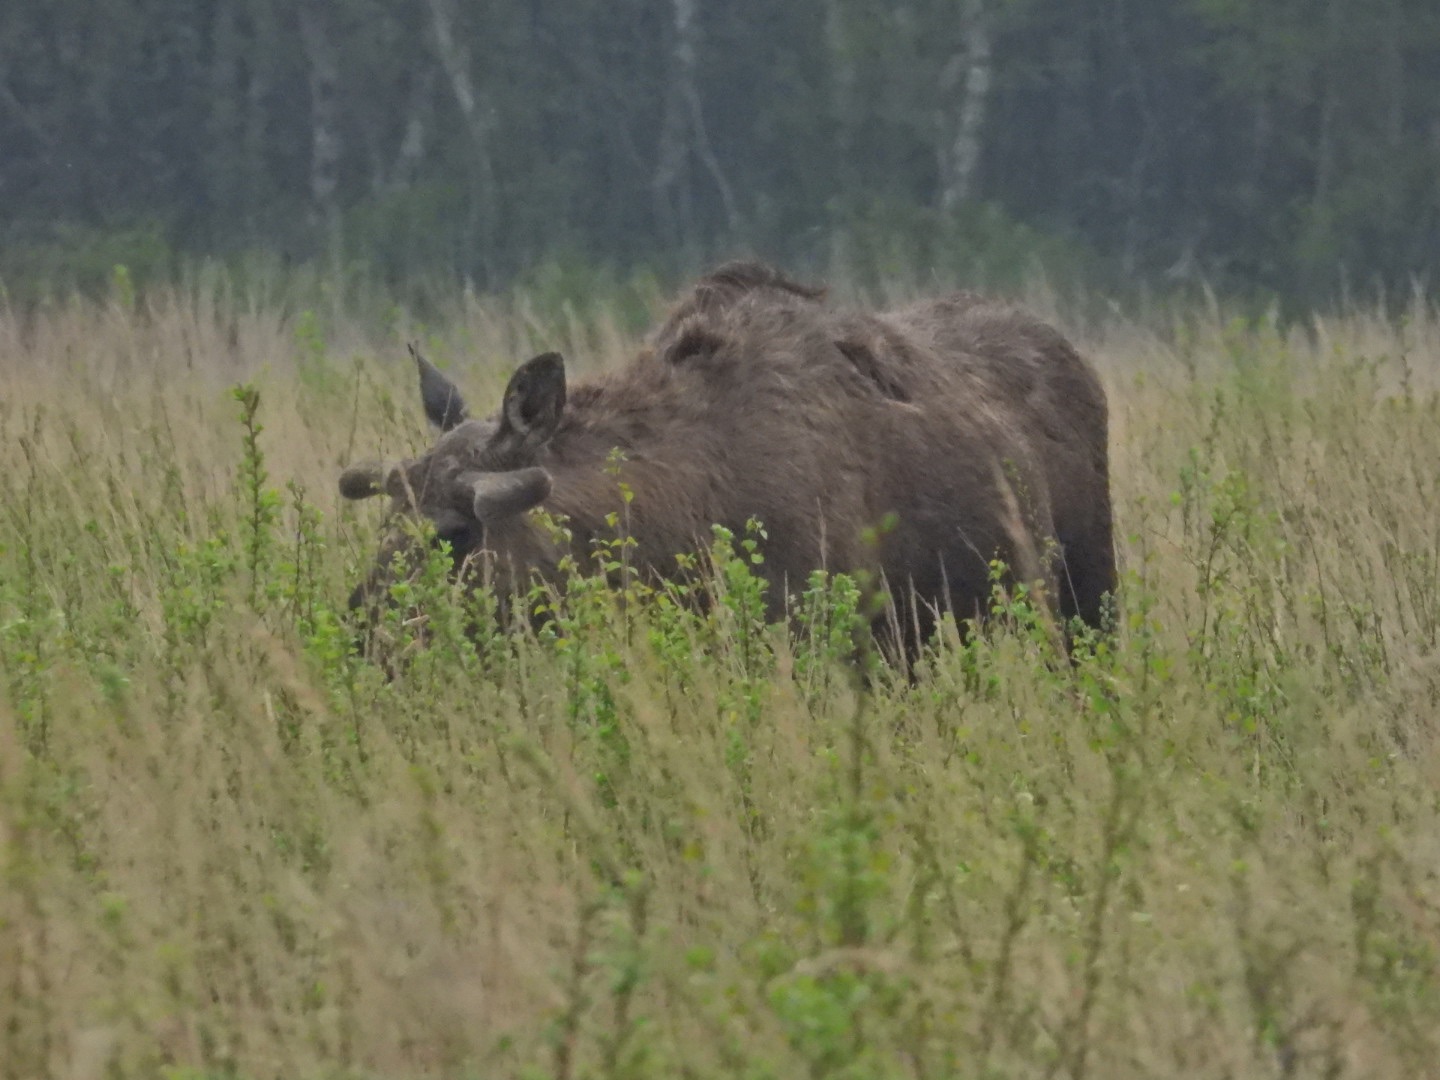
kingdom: Animalia
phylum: Chordata
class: Mammalia
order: Artiodactyla
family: Cervidae
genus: Alces
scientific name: Alces alces
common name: Elg
